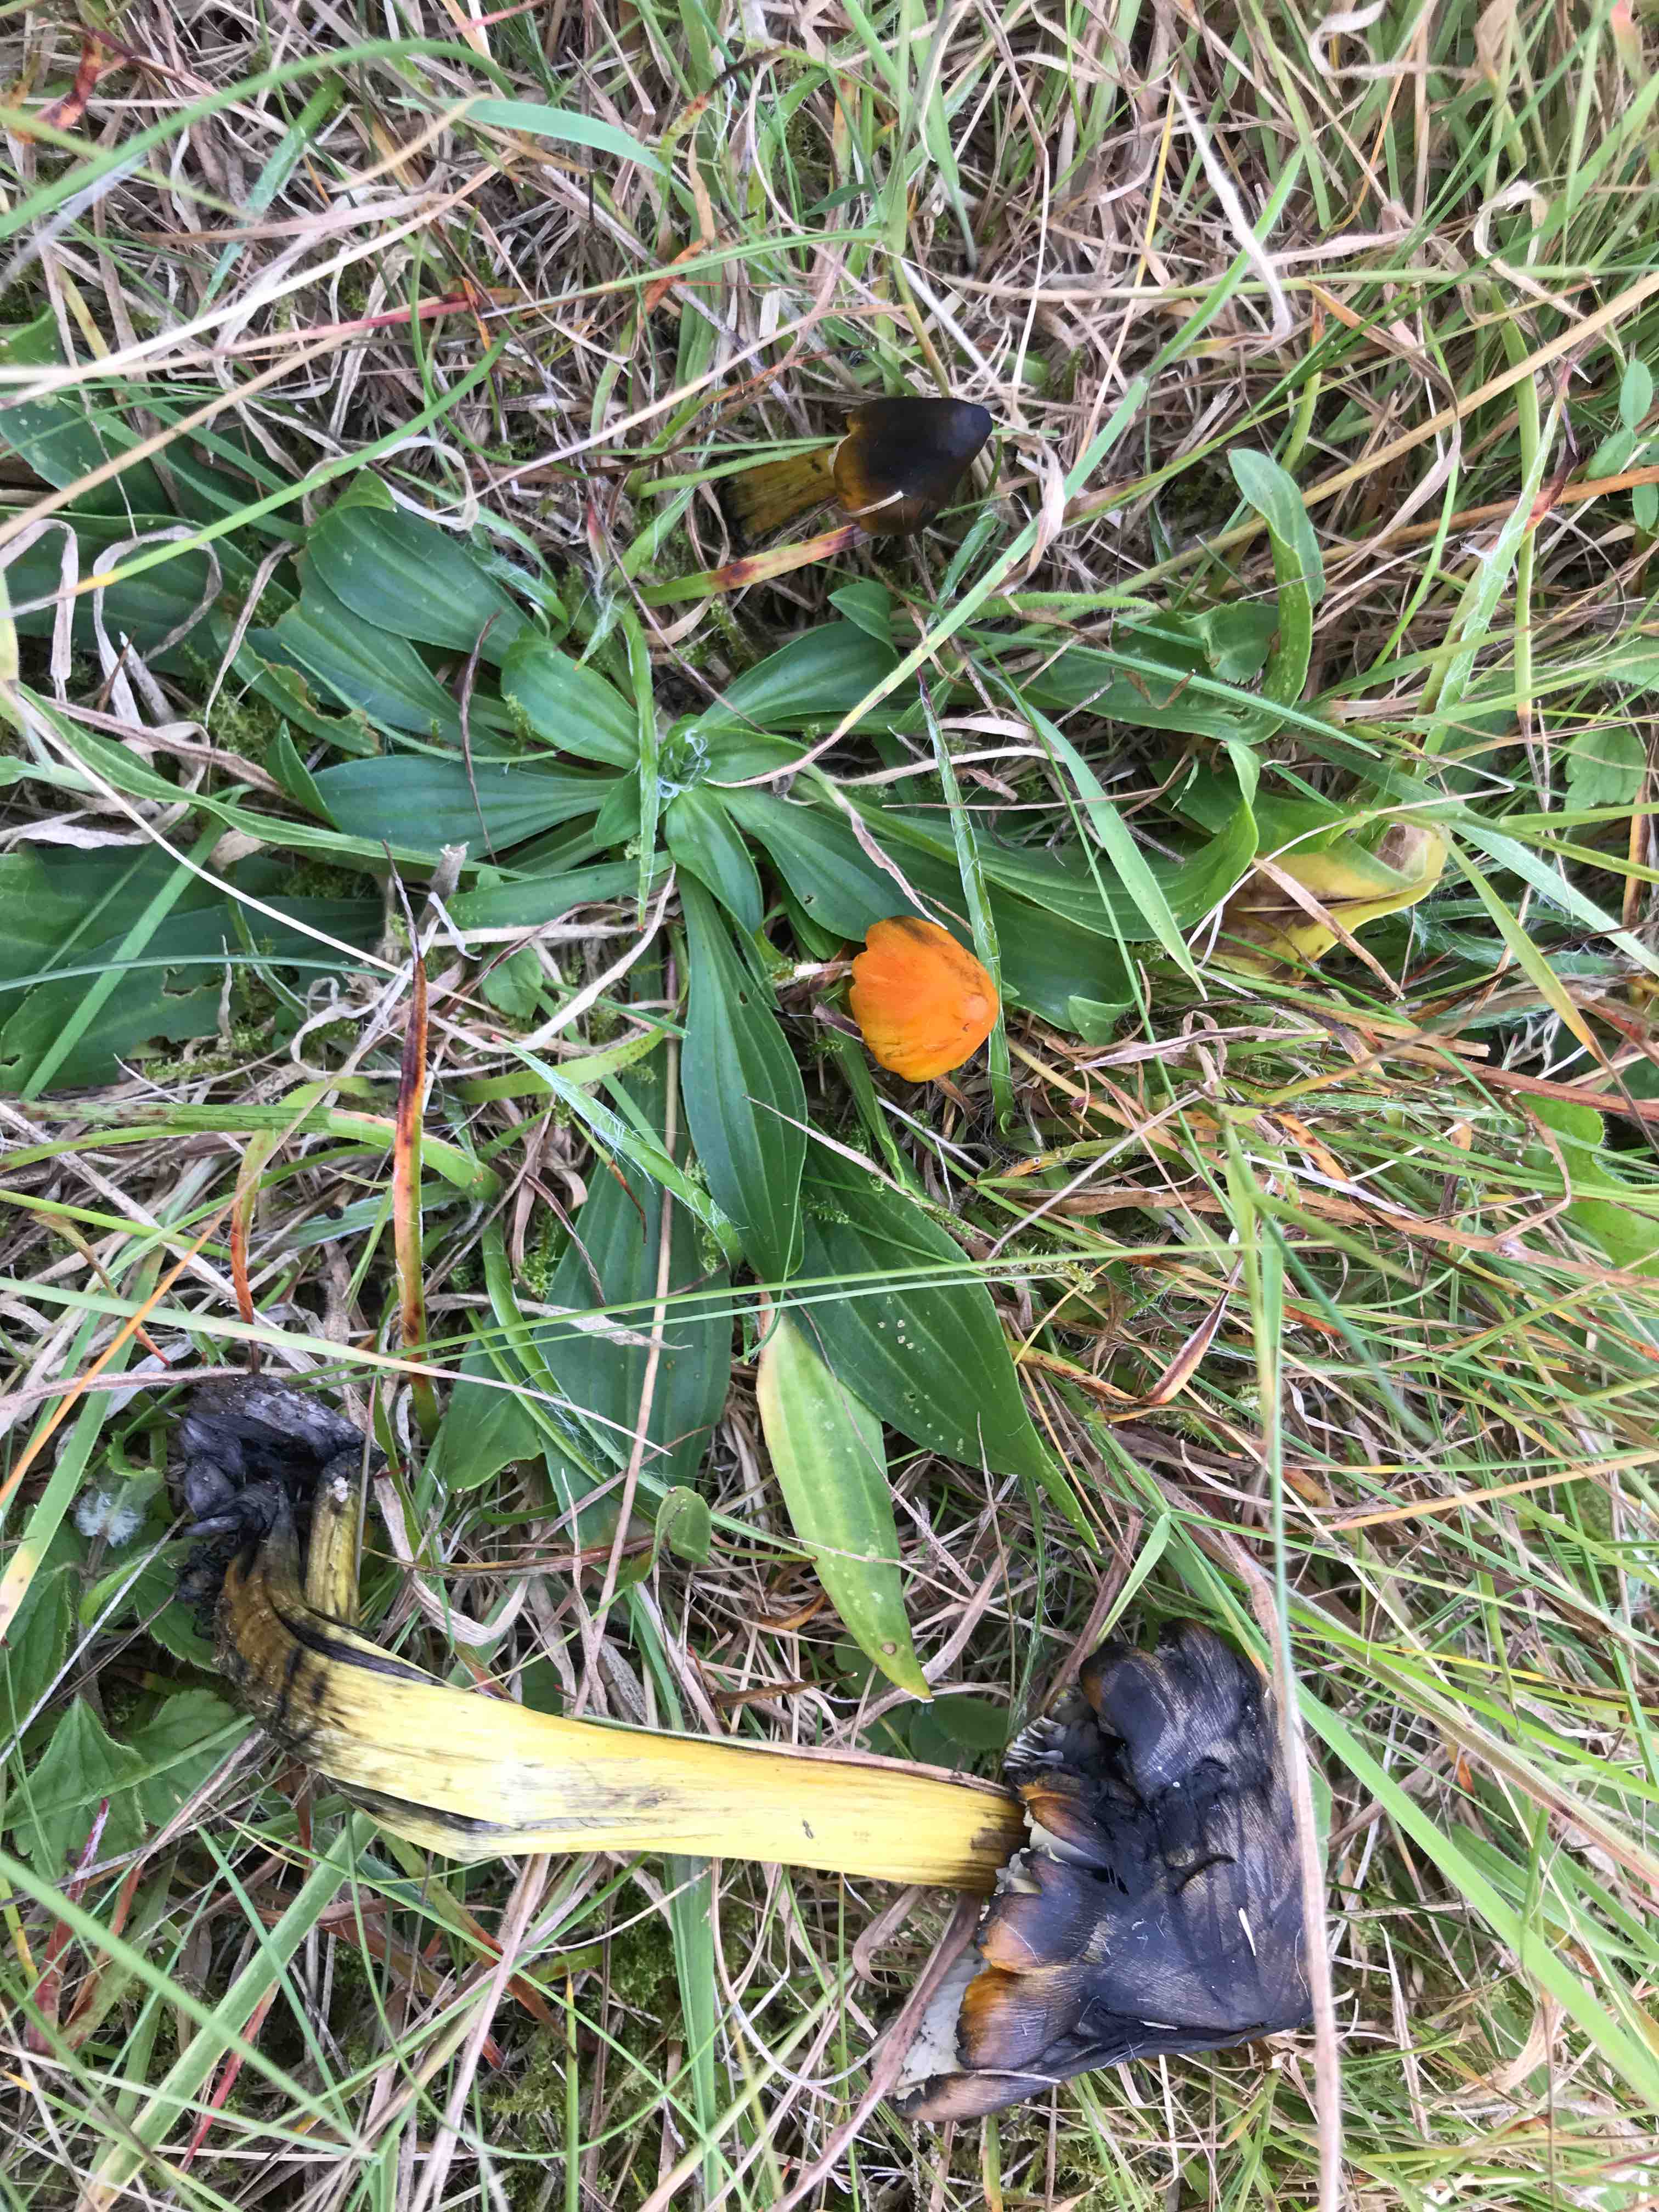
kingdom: Fungi
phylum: Basidiomycota
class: Agaricomycetes
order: Agaricales
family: Hygrophoraceae
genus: Hygrocybe
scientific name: Hygrocybe conica
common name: kegle-vokshat
